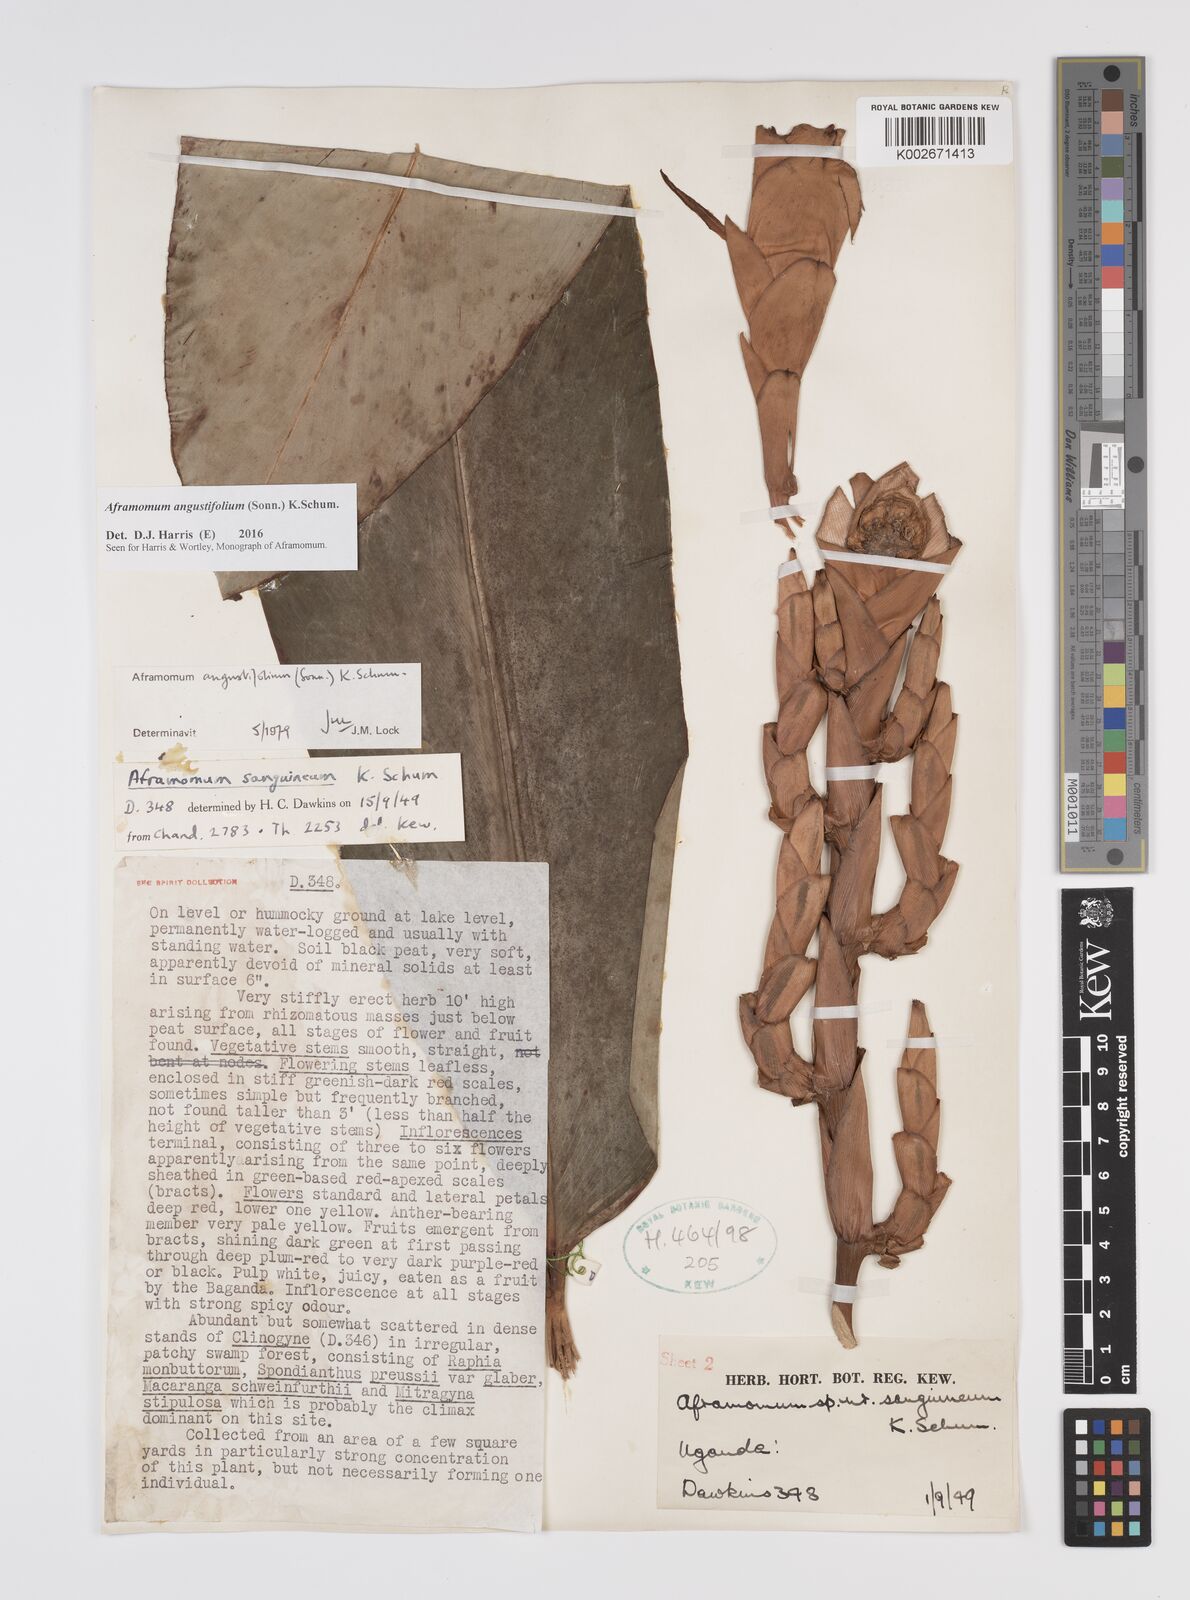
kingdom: Plantae
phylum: Tracheophyta
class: Liliopsida
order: Zingiberales
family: Zingiberaceae
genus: Aframomum
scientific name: Aframomum angustifolium
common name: Guinea grains
